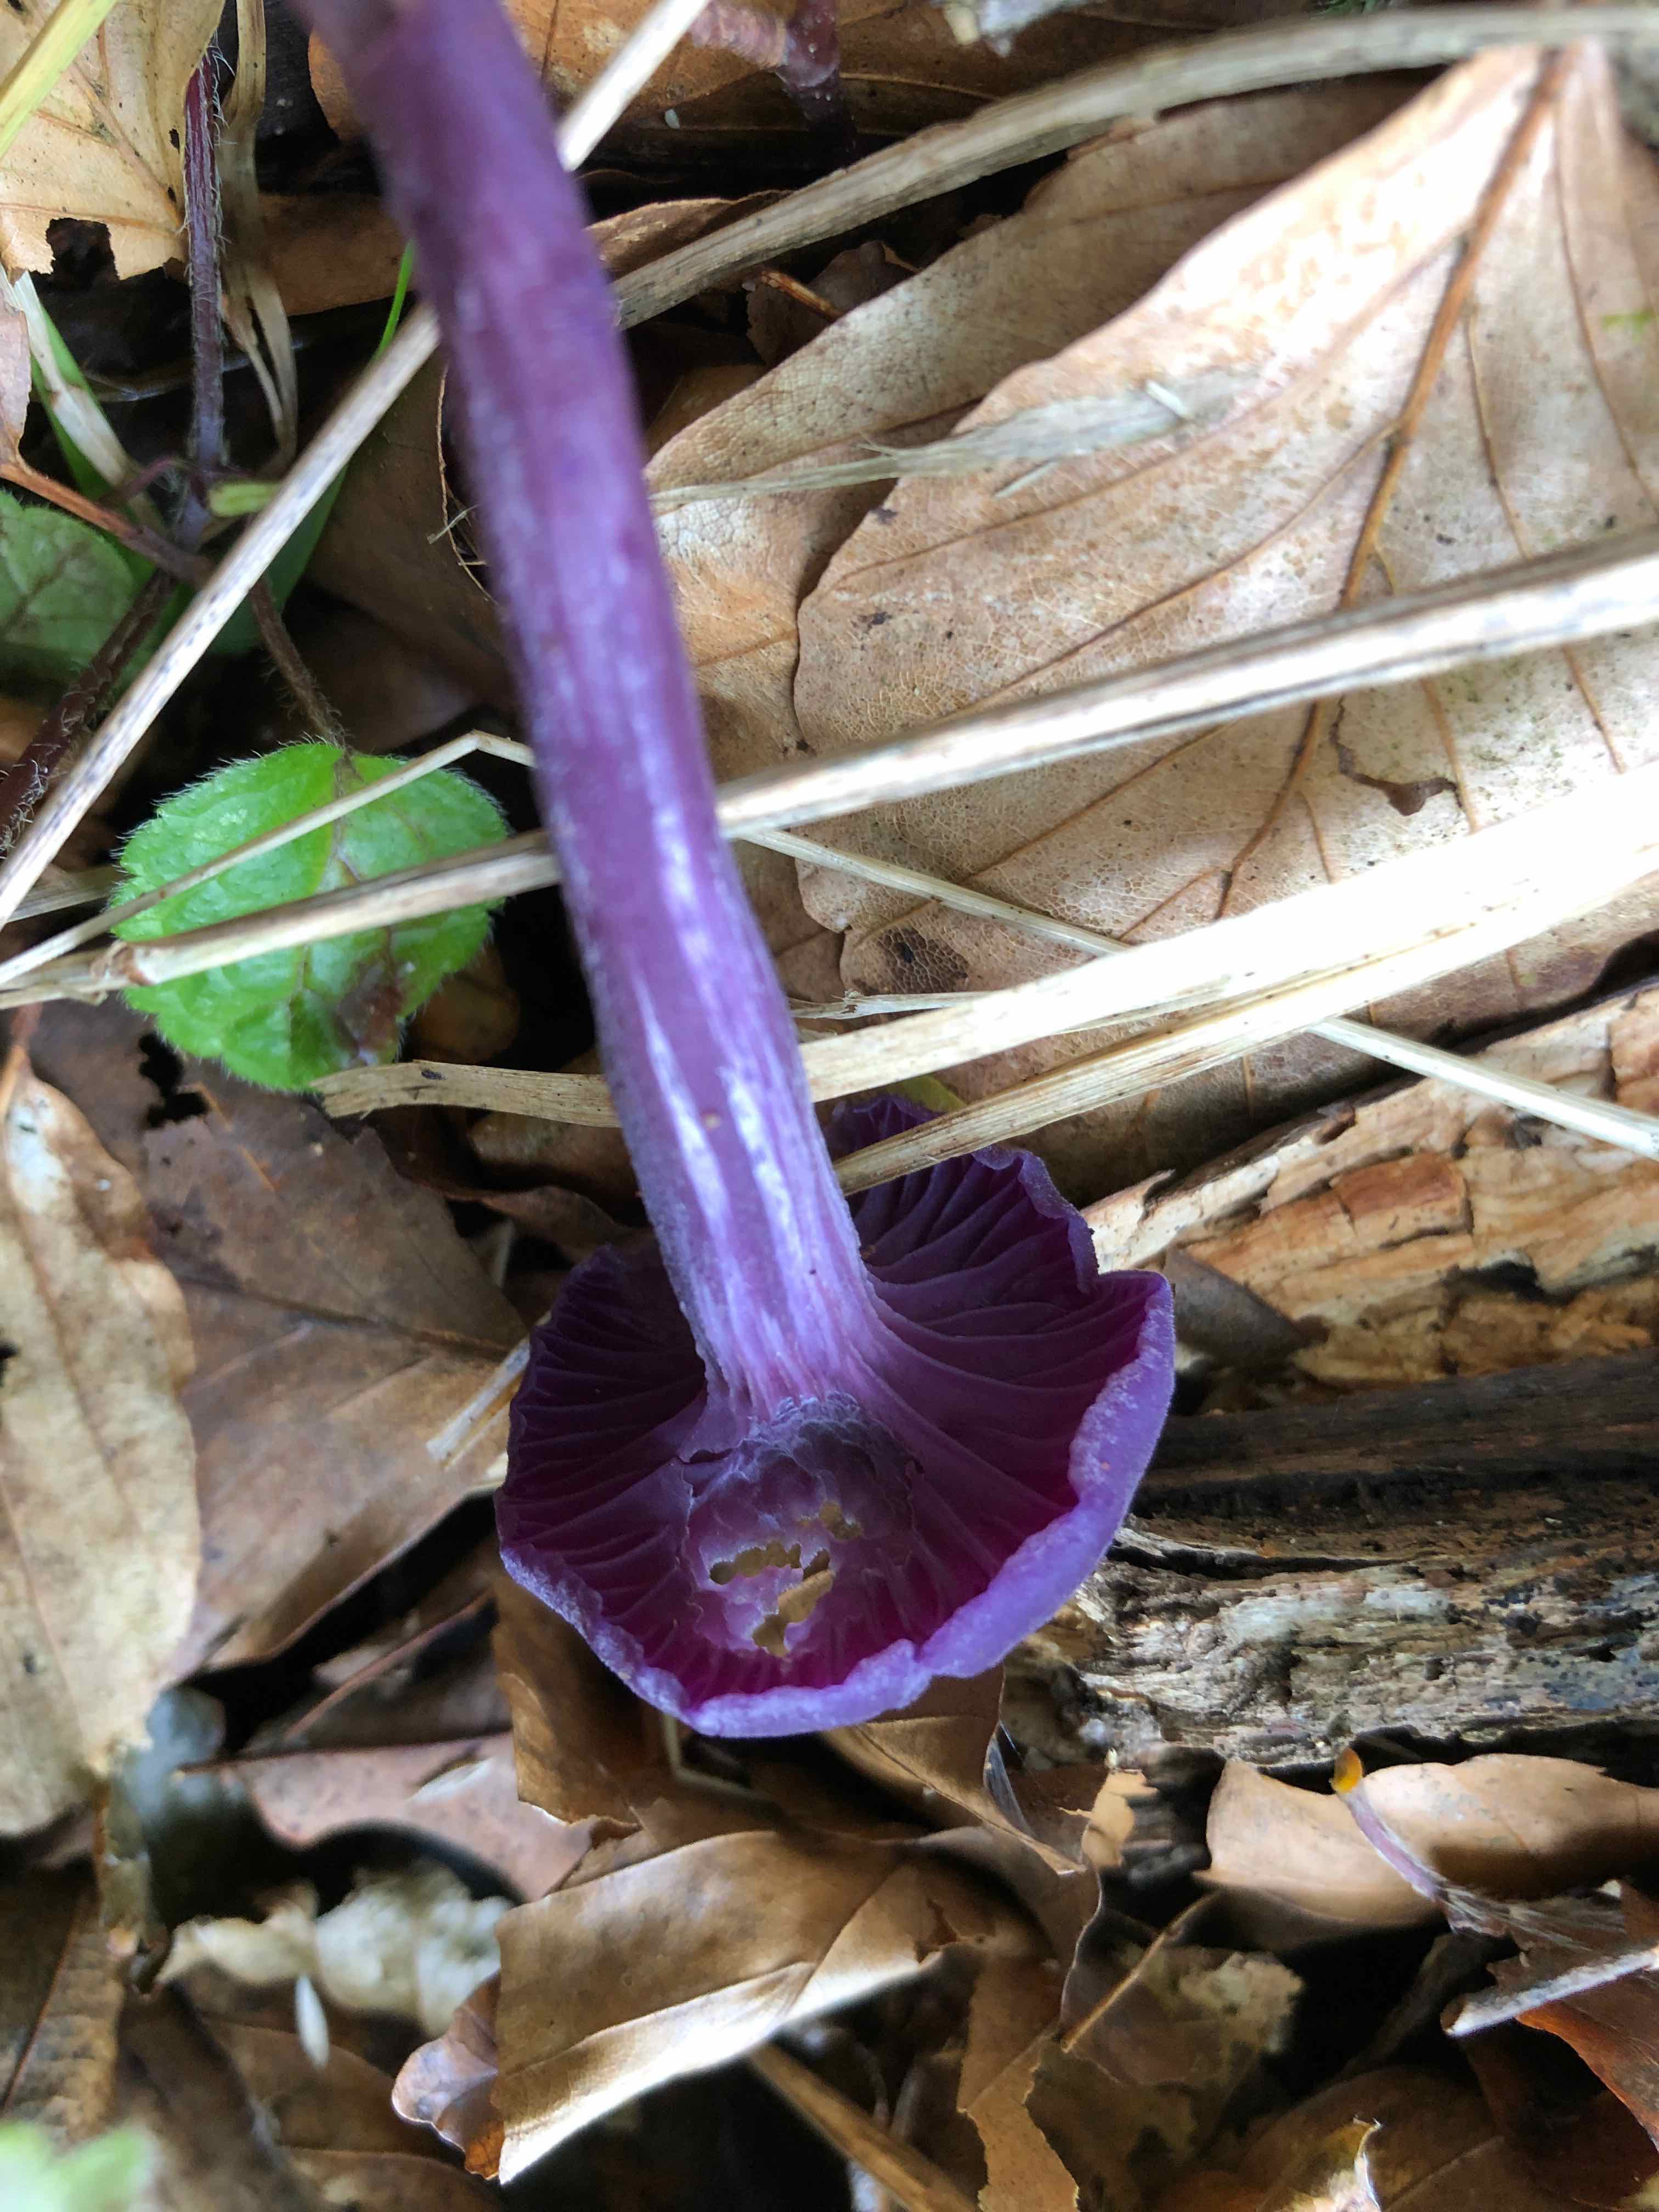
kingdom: Fungi
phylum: Basidiomycota
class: Agaricomycetes
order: Agaricales
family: Hydnangiaceae
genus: Laccaria
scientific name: Laccaria amethystina
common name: violet ametysthat
